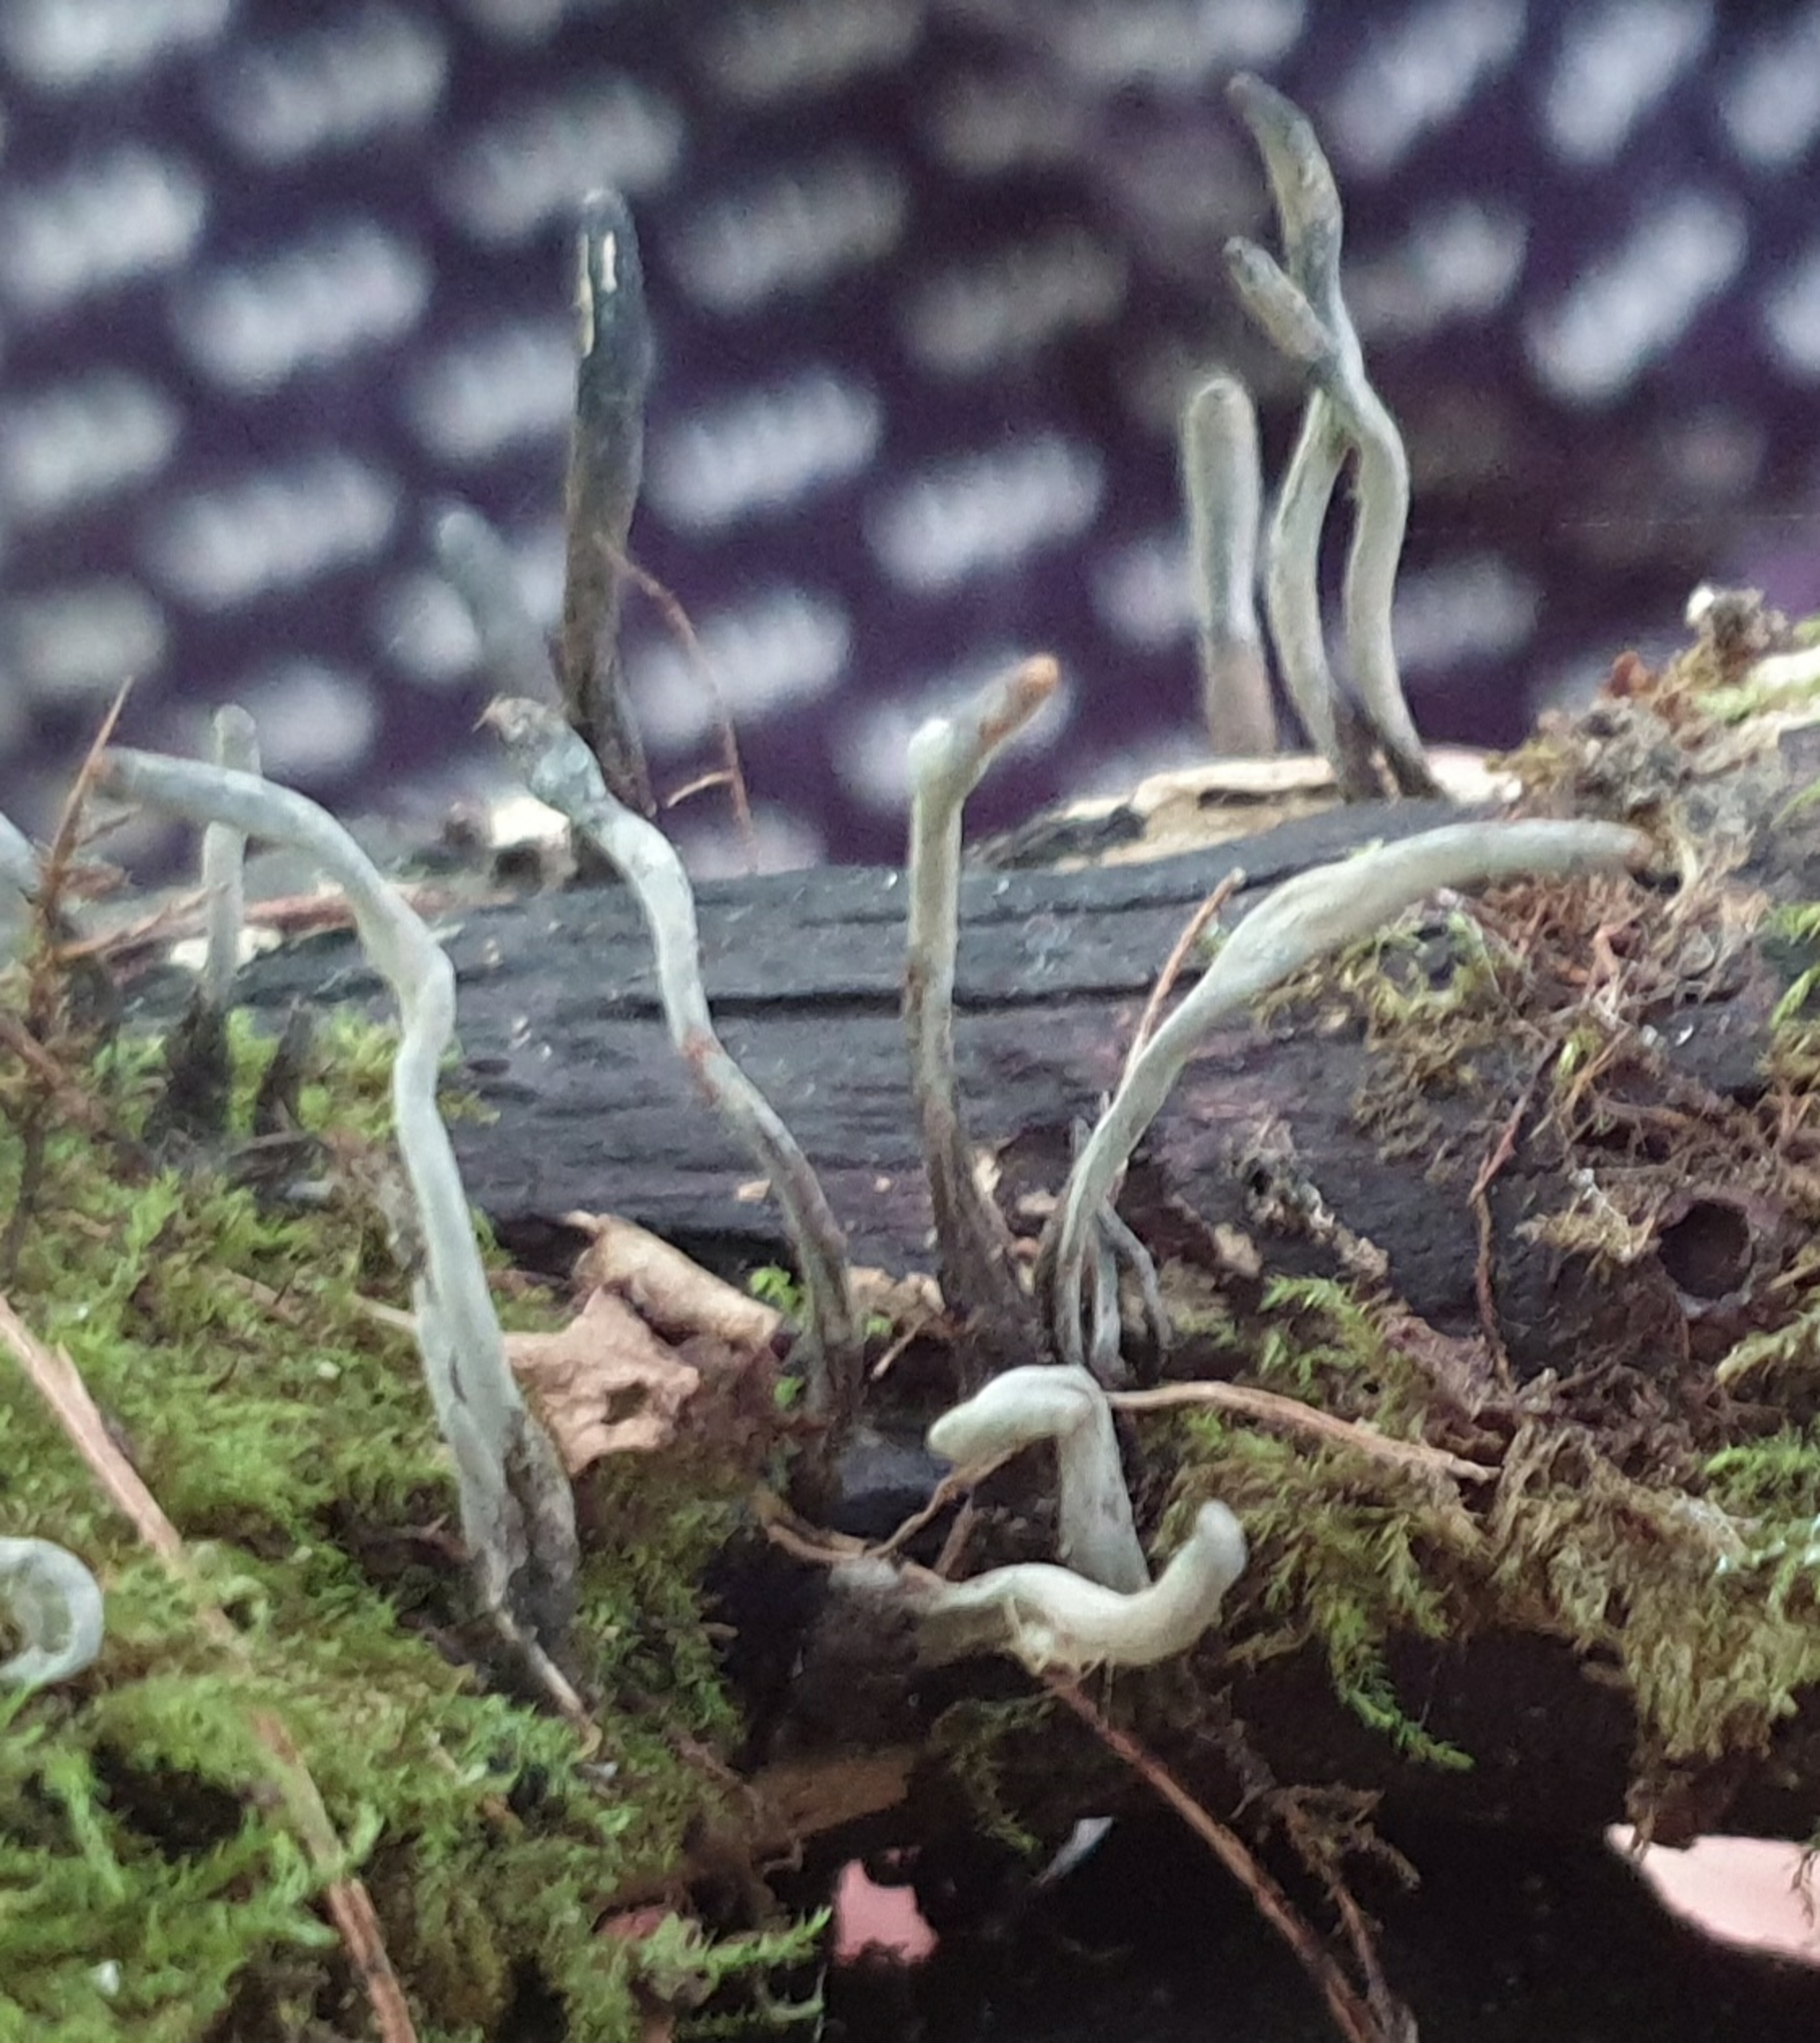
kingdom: Fungi
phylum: Ascomycota
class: Sordariomycetes
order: Xylariales
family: Xylariaceae
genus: Xylaria
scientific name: Xylaria
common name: Stødsvamp
